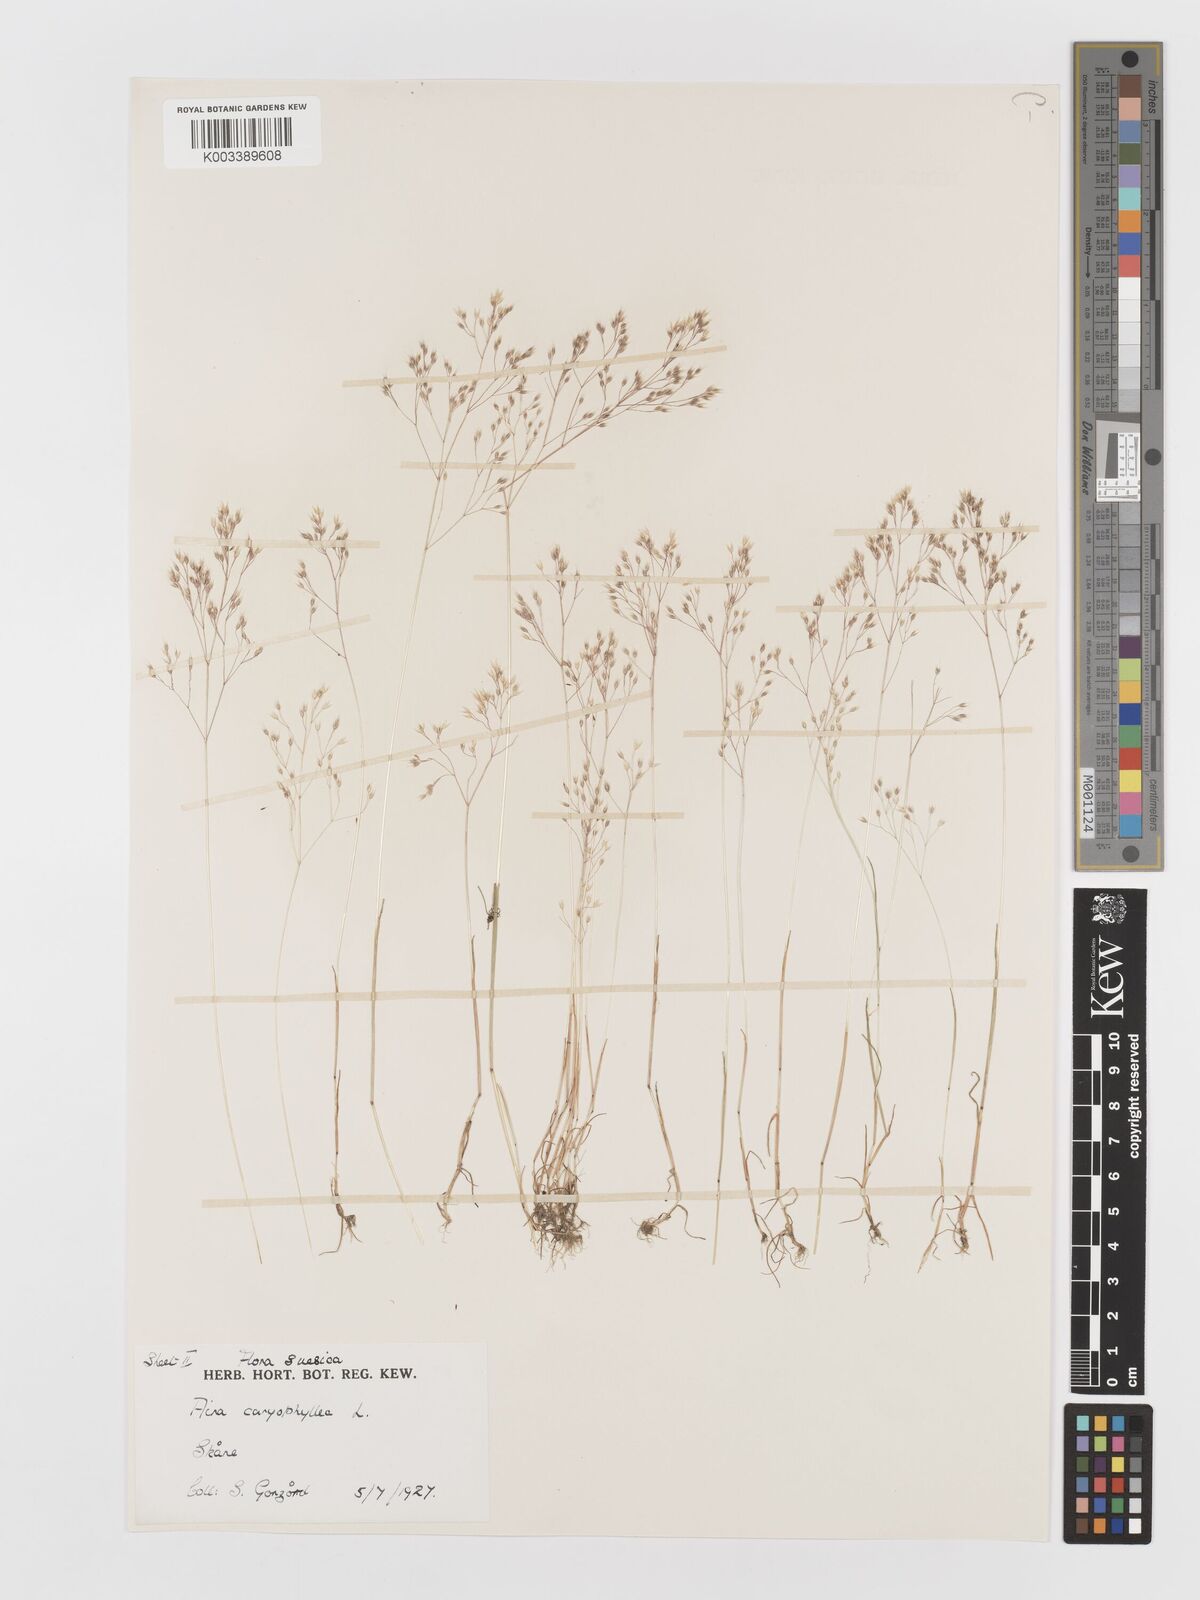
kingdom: Plantae
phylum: Tracheophyta
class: Liliopsida
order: Poales
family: Poaceae
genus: Aira
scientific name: Aira caryophyllea
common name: Silver hairgrass
